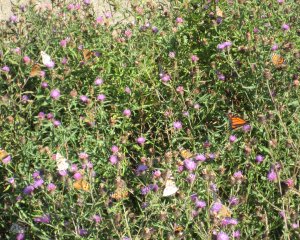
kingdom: Animalia
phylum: Arthropoda
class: Insecta
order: Lepidoptera
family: Nymphalidae
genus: Vanessa
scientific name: Vanessa virginiensis
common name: American Lady
